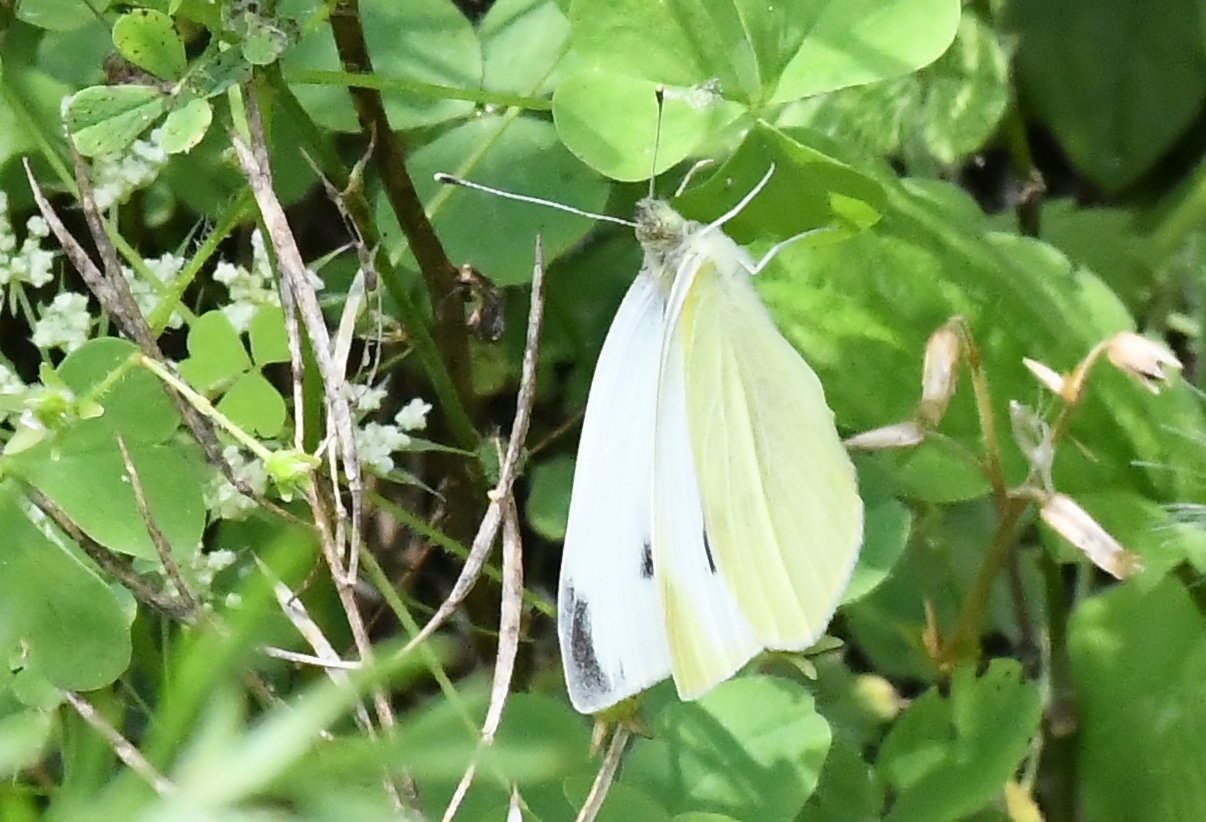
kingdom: Animalia
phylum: Arthropoda
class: Insecta
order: Lepidoptera
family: Pieridae
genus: Pieris
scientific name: Pieris rapae
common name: Cabbage White
